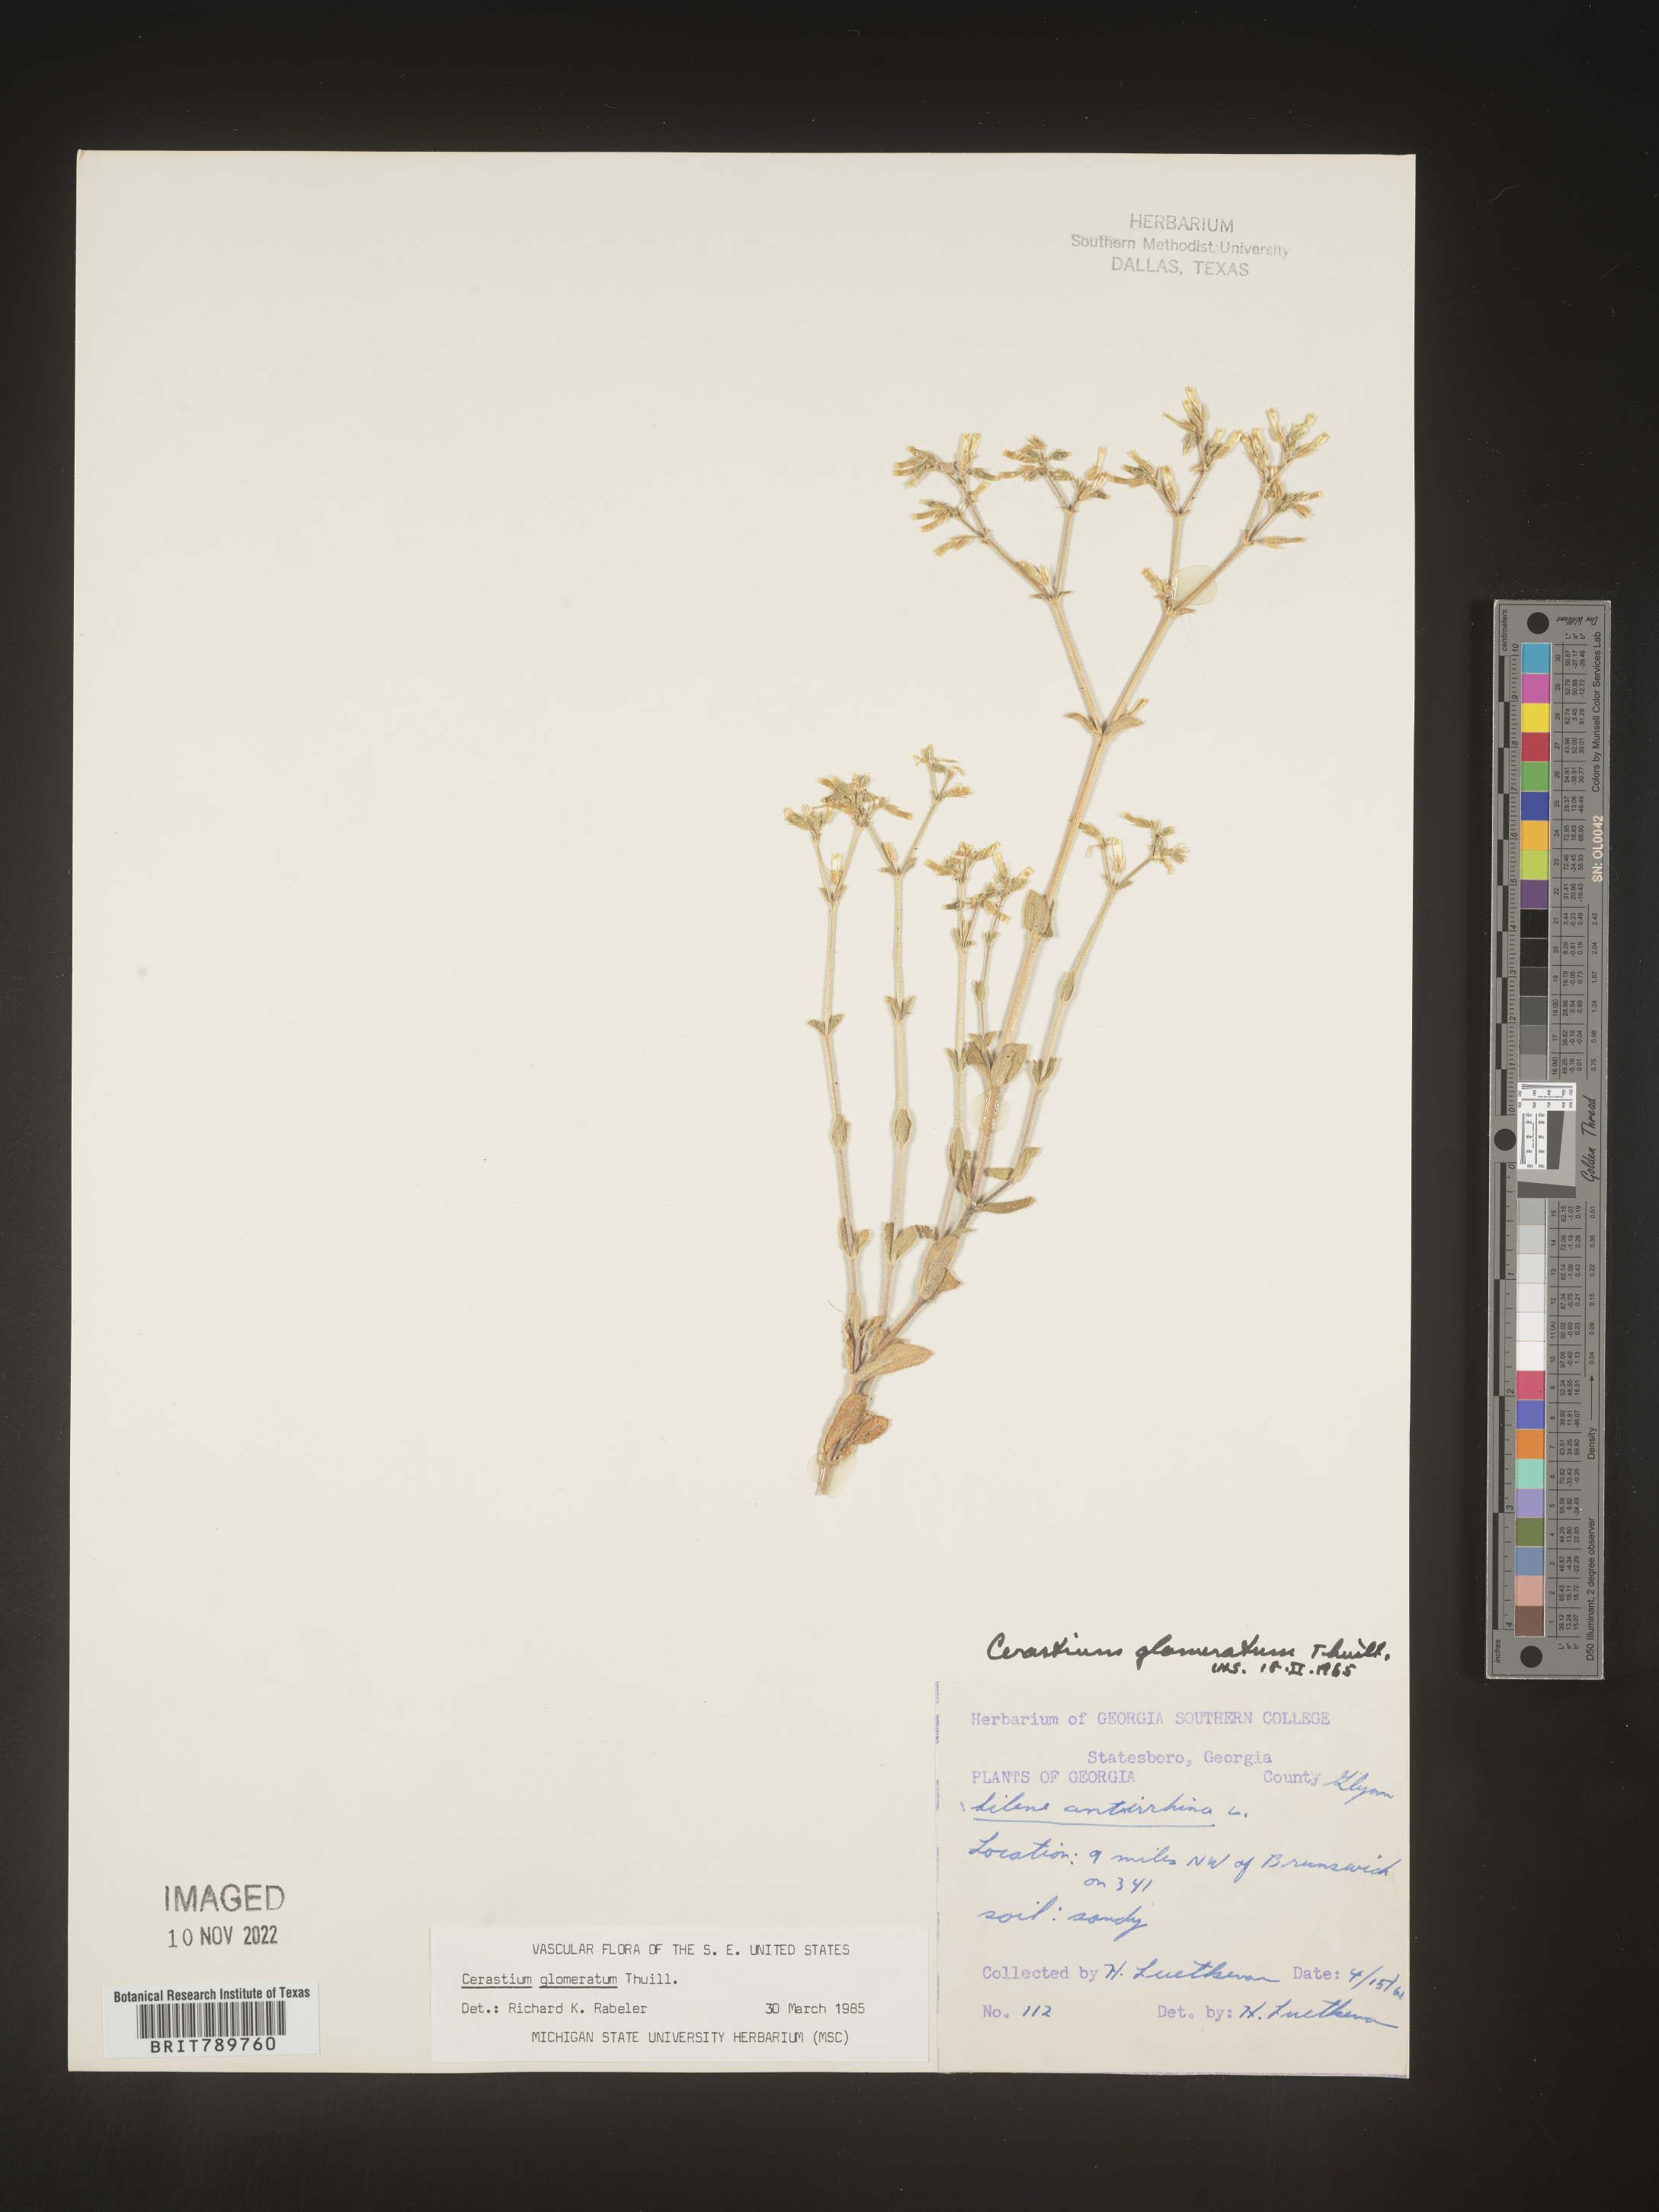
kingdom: Plantae
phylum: Tracheophyta
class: Magnoliopsida
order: Caryophyllales
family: Caryophyllaceae
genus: Cerastium
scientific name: Cerastium glomeratum
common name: Sticky chickweed
